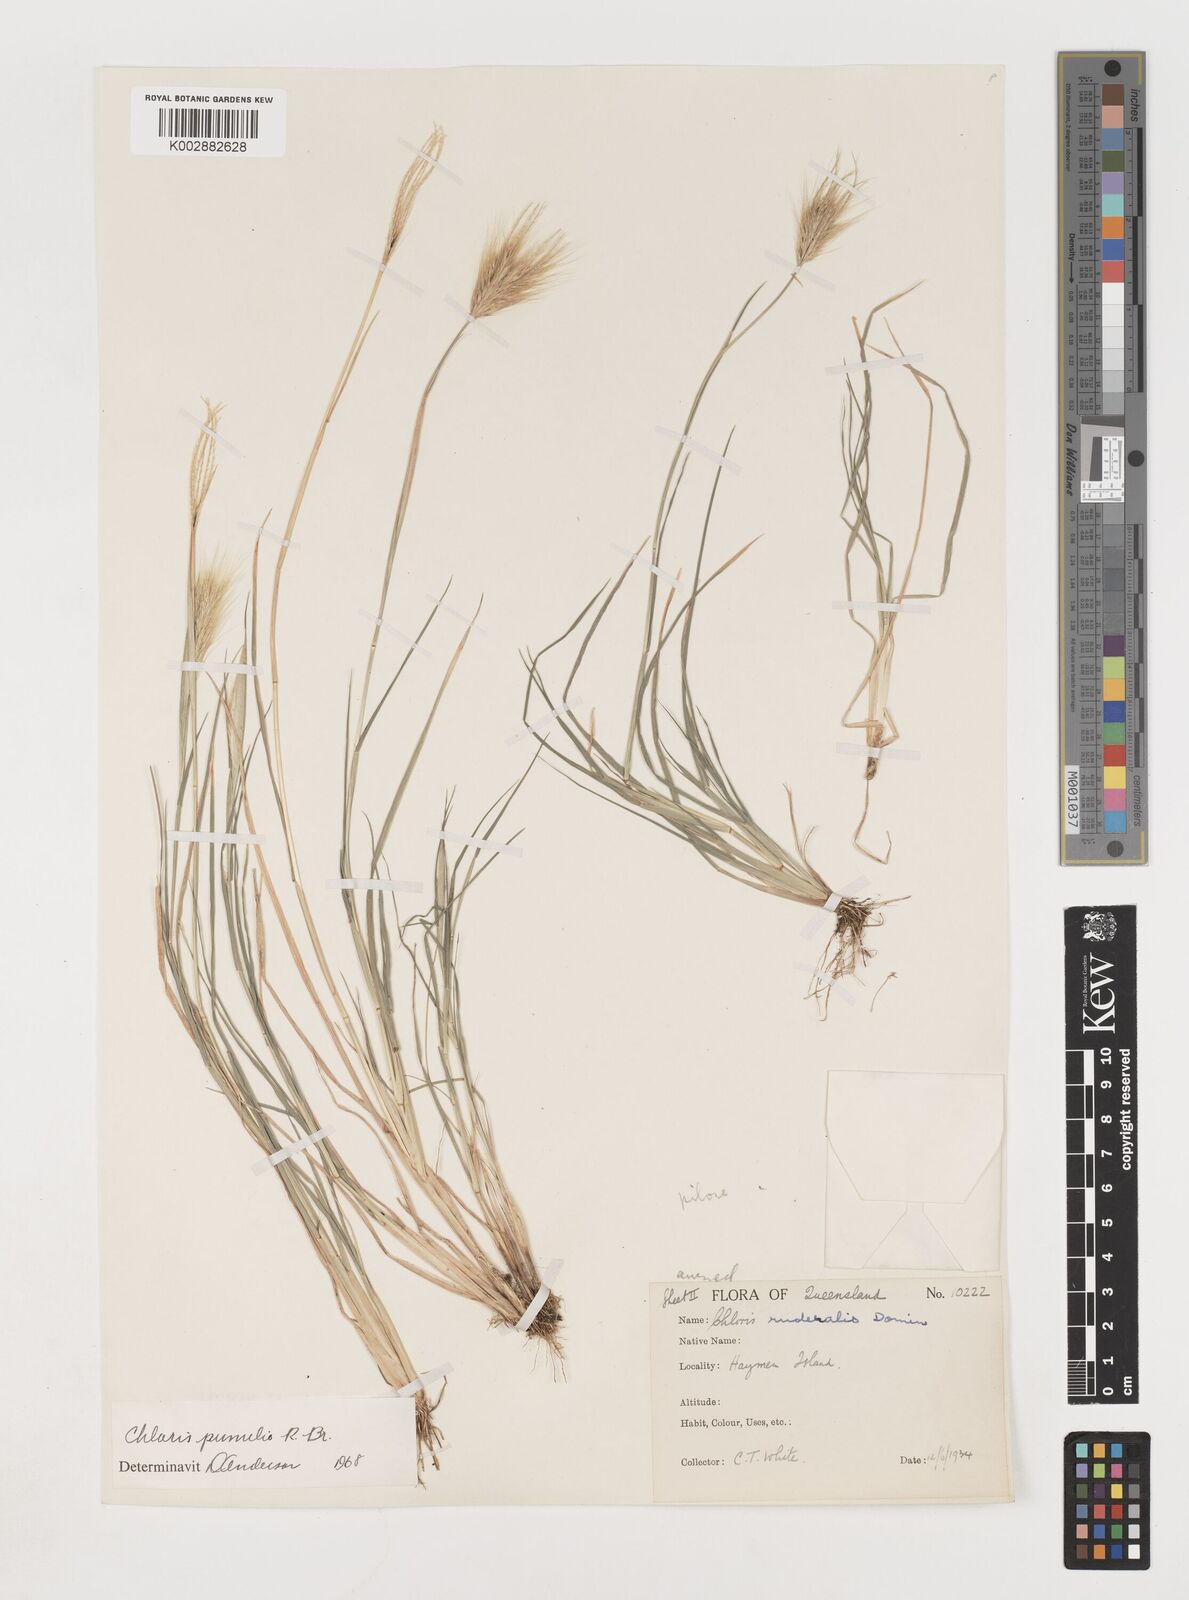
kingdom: Plantae
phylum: Tracheophyta
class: Liliopsida
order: Poales
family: Poaceae
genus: Chloris
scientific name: Chloris pumilio
